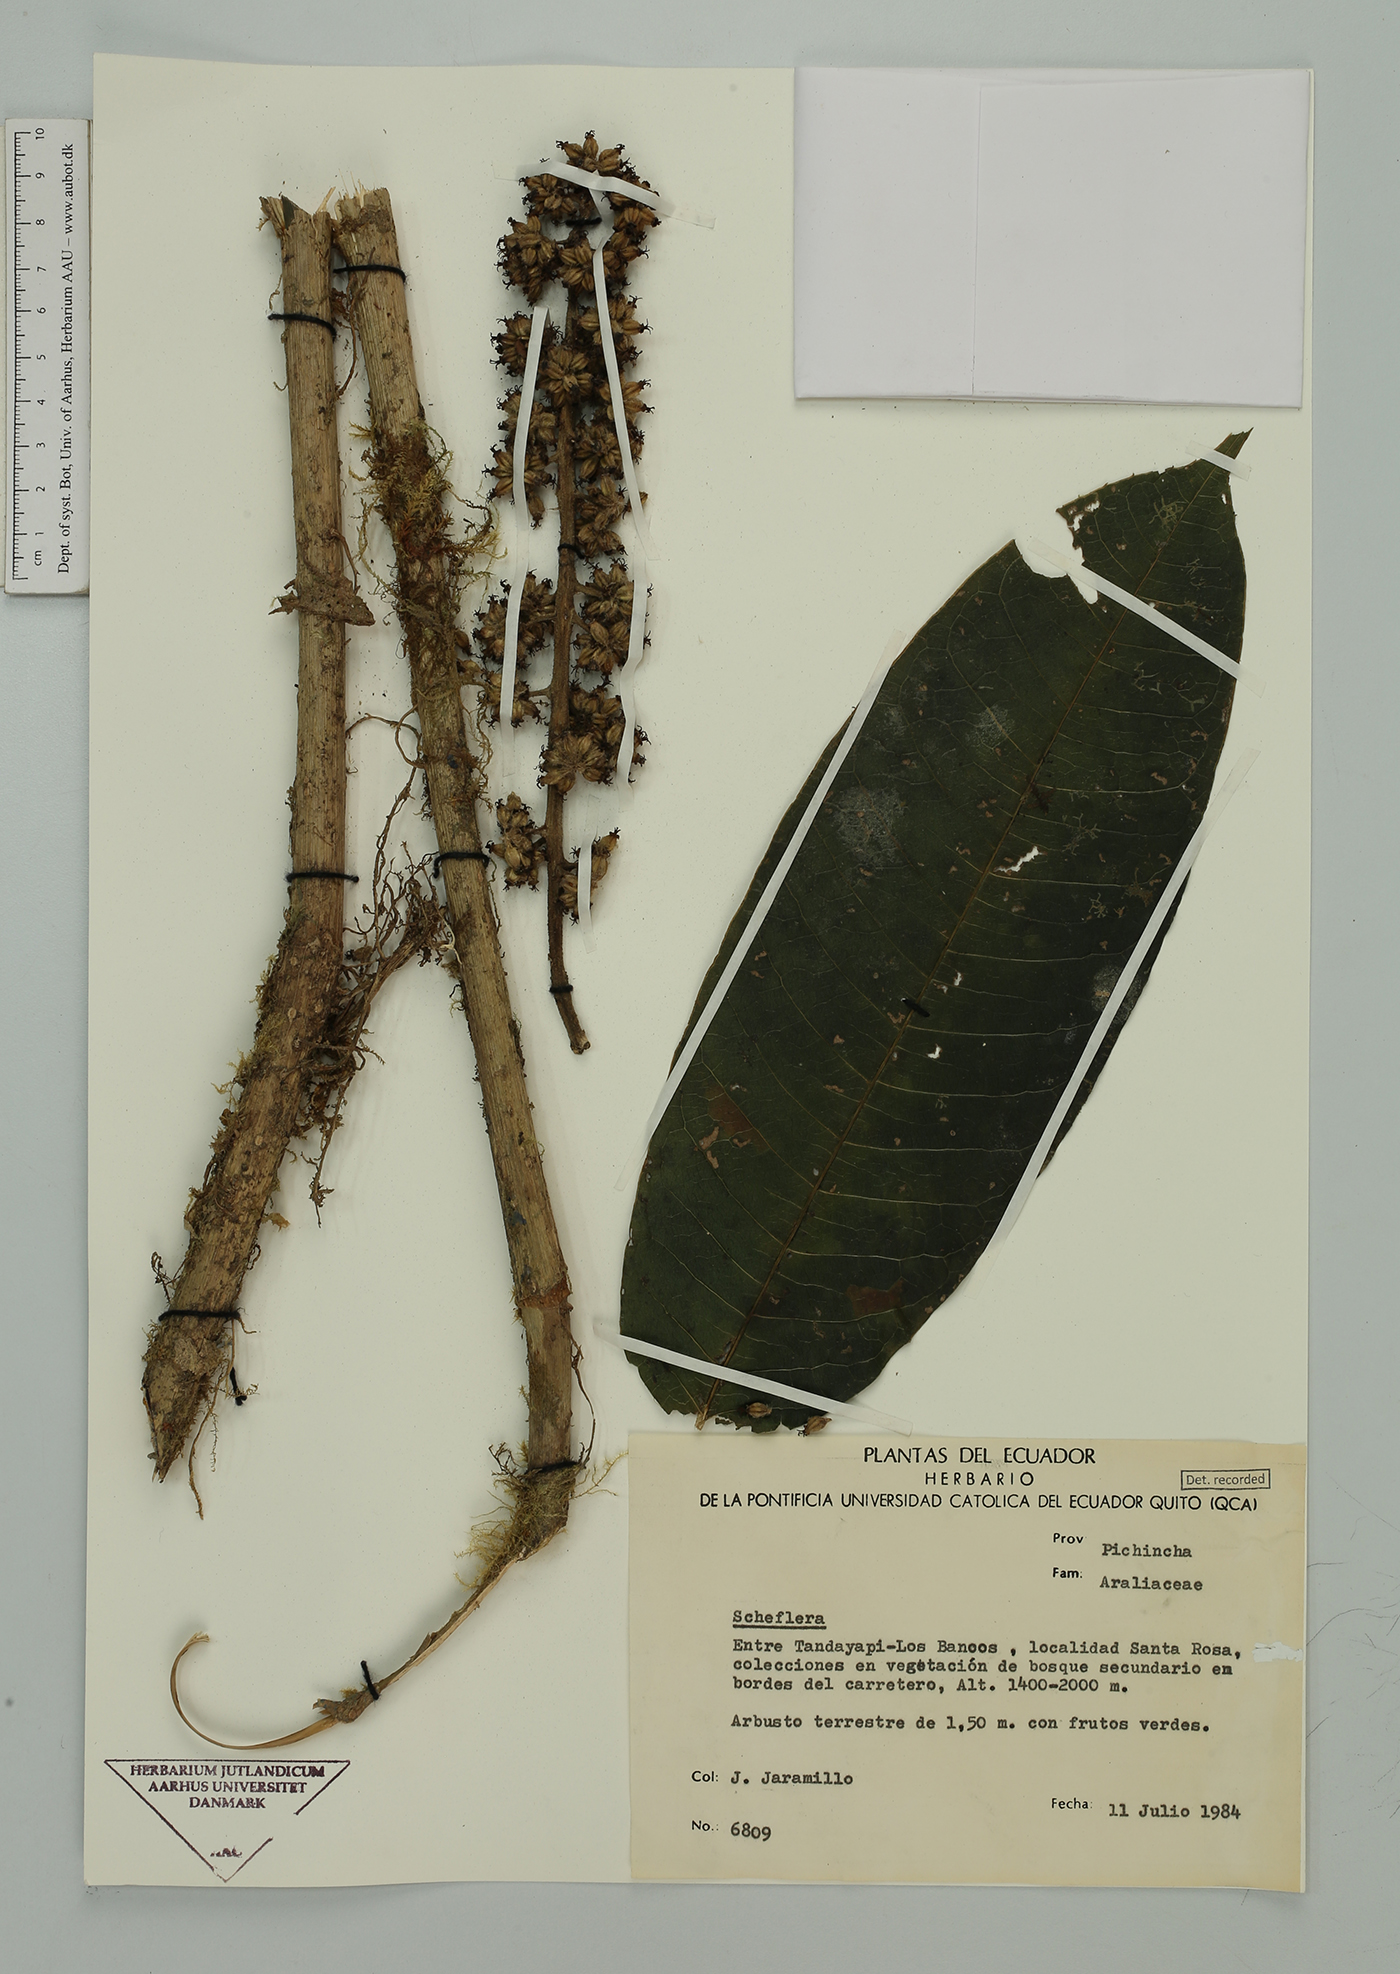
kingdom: Plantae
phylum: Tracheophyta
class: Magnoliopsida
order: Apiales
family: Araliaceae
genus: Sciodaphyllum
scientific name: Sciodaphyllum lasiogyne
